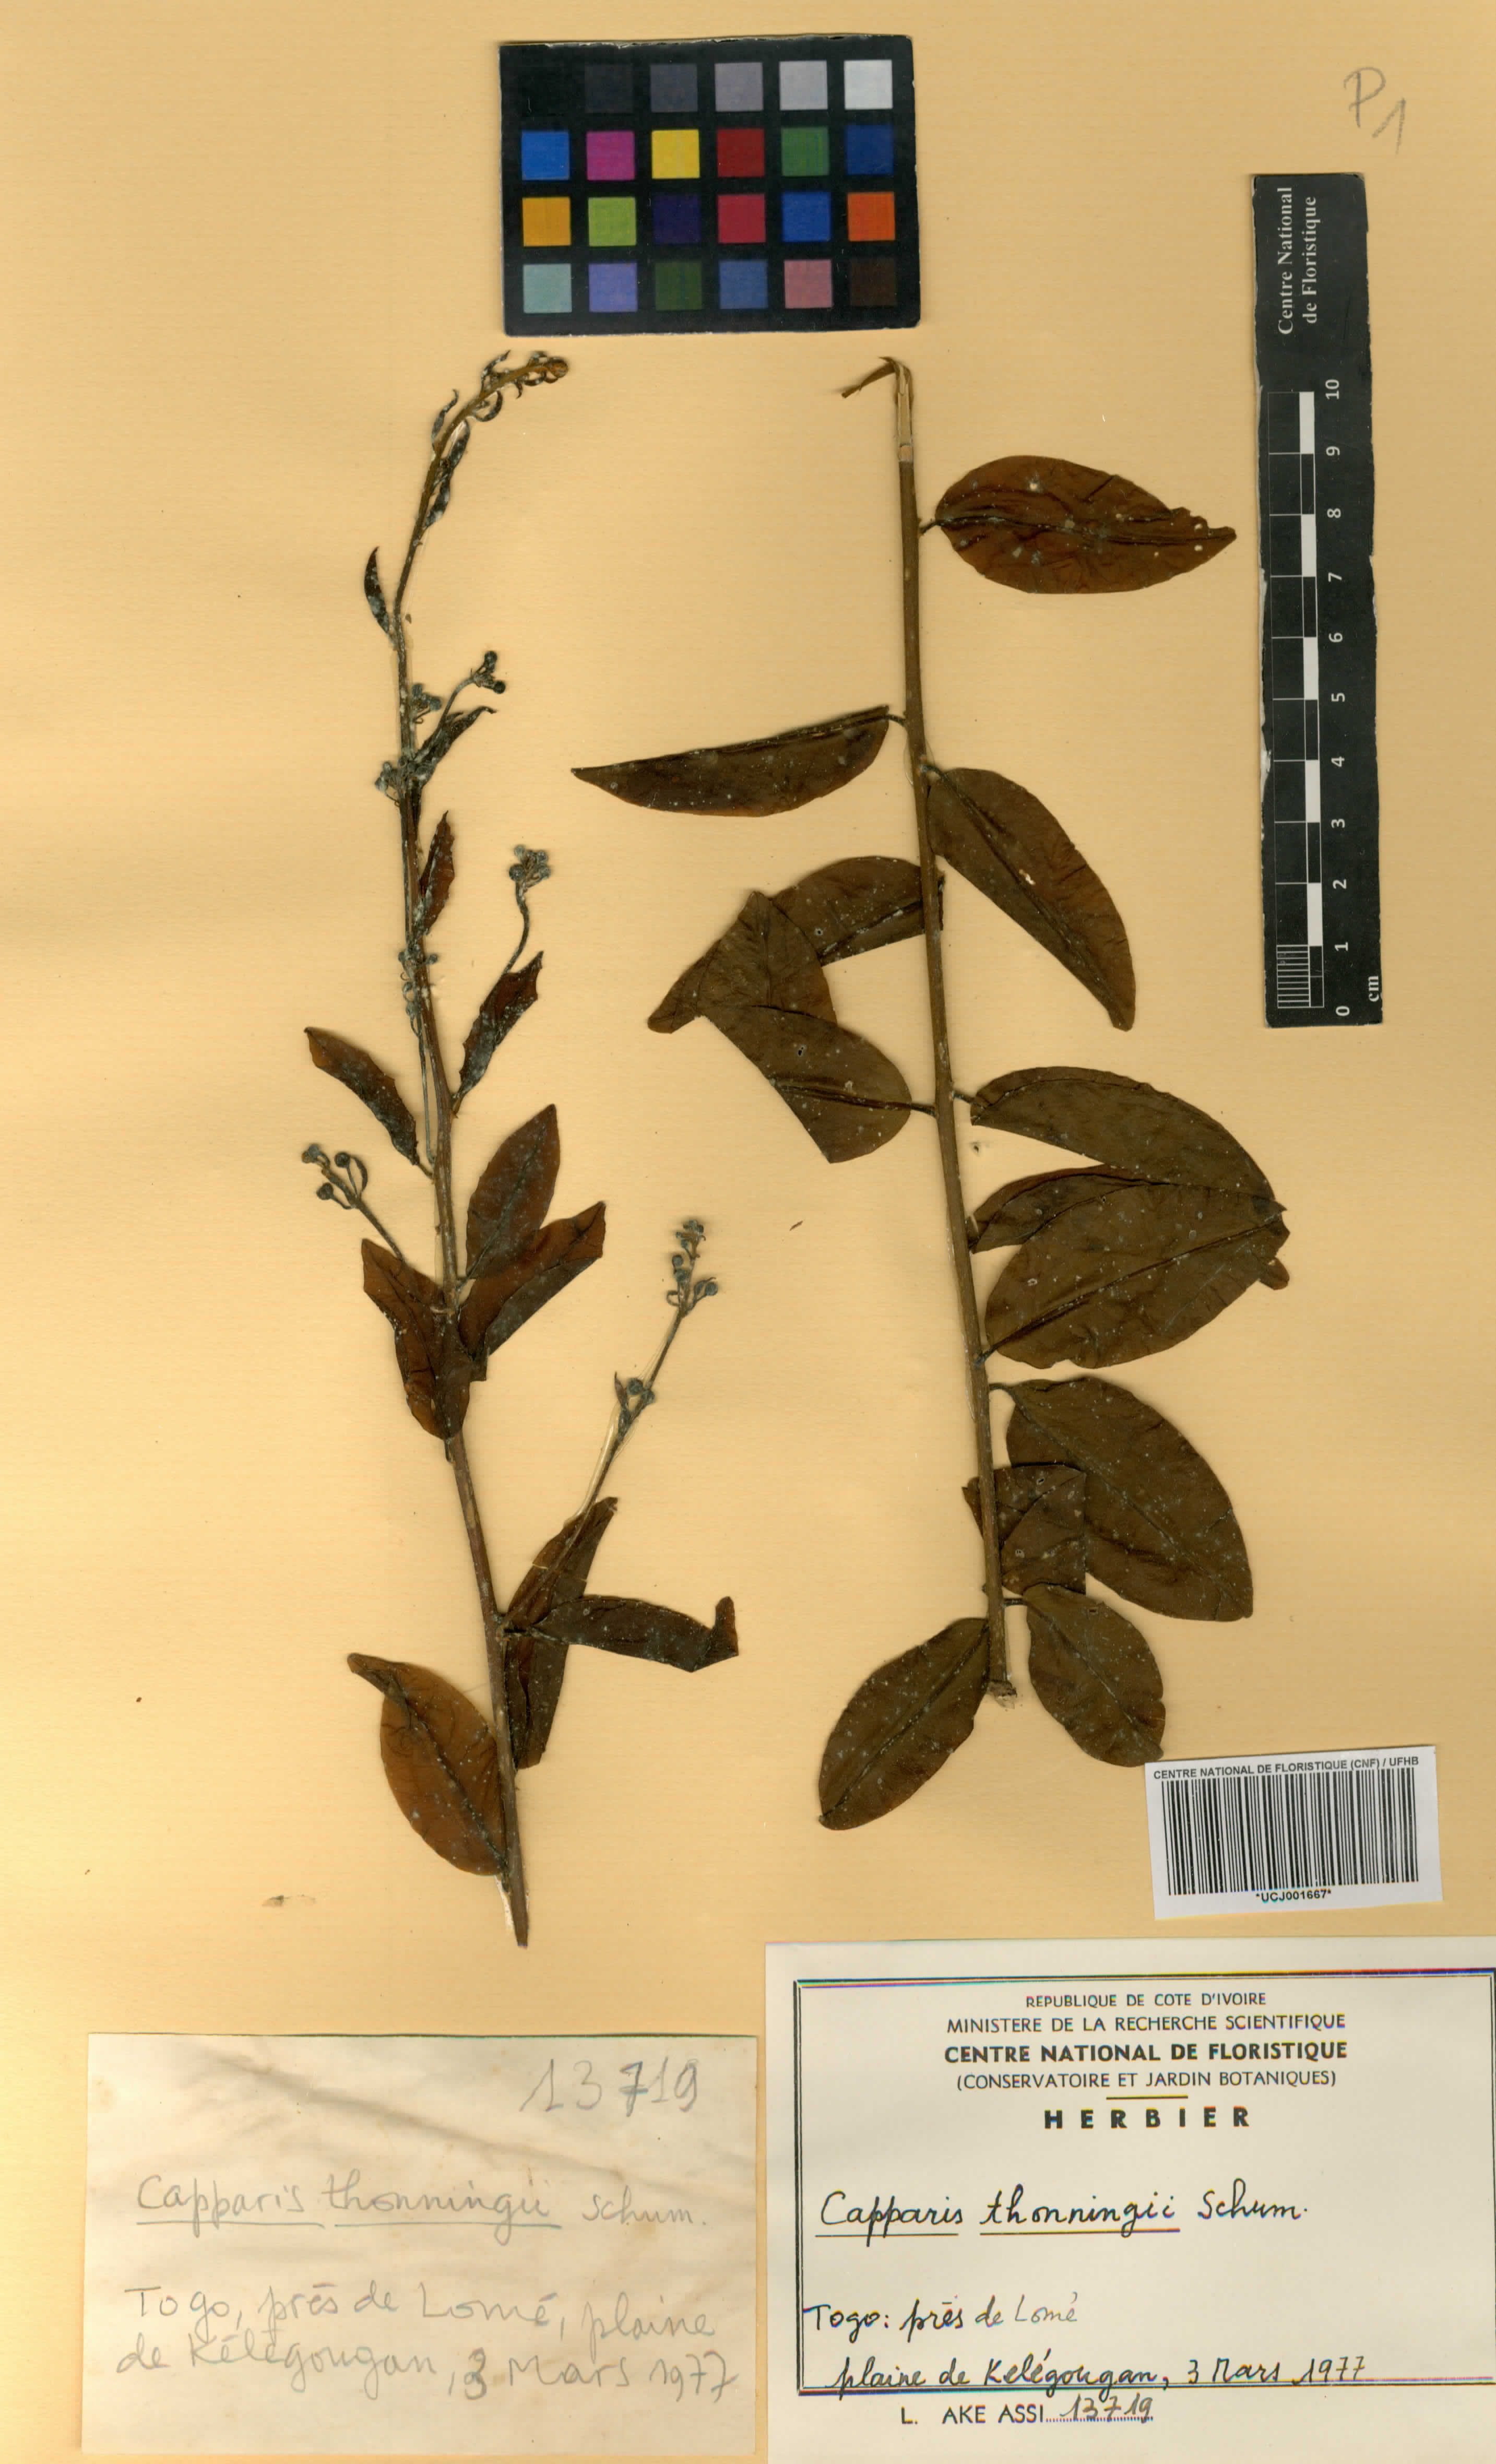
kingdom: Plantae
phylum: Tracheophyta
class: Magnoliopsida
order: Brassicales
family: Capparaceae
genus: Capparis
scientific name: Capparis brassii
